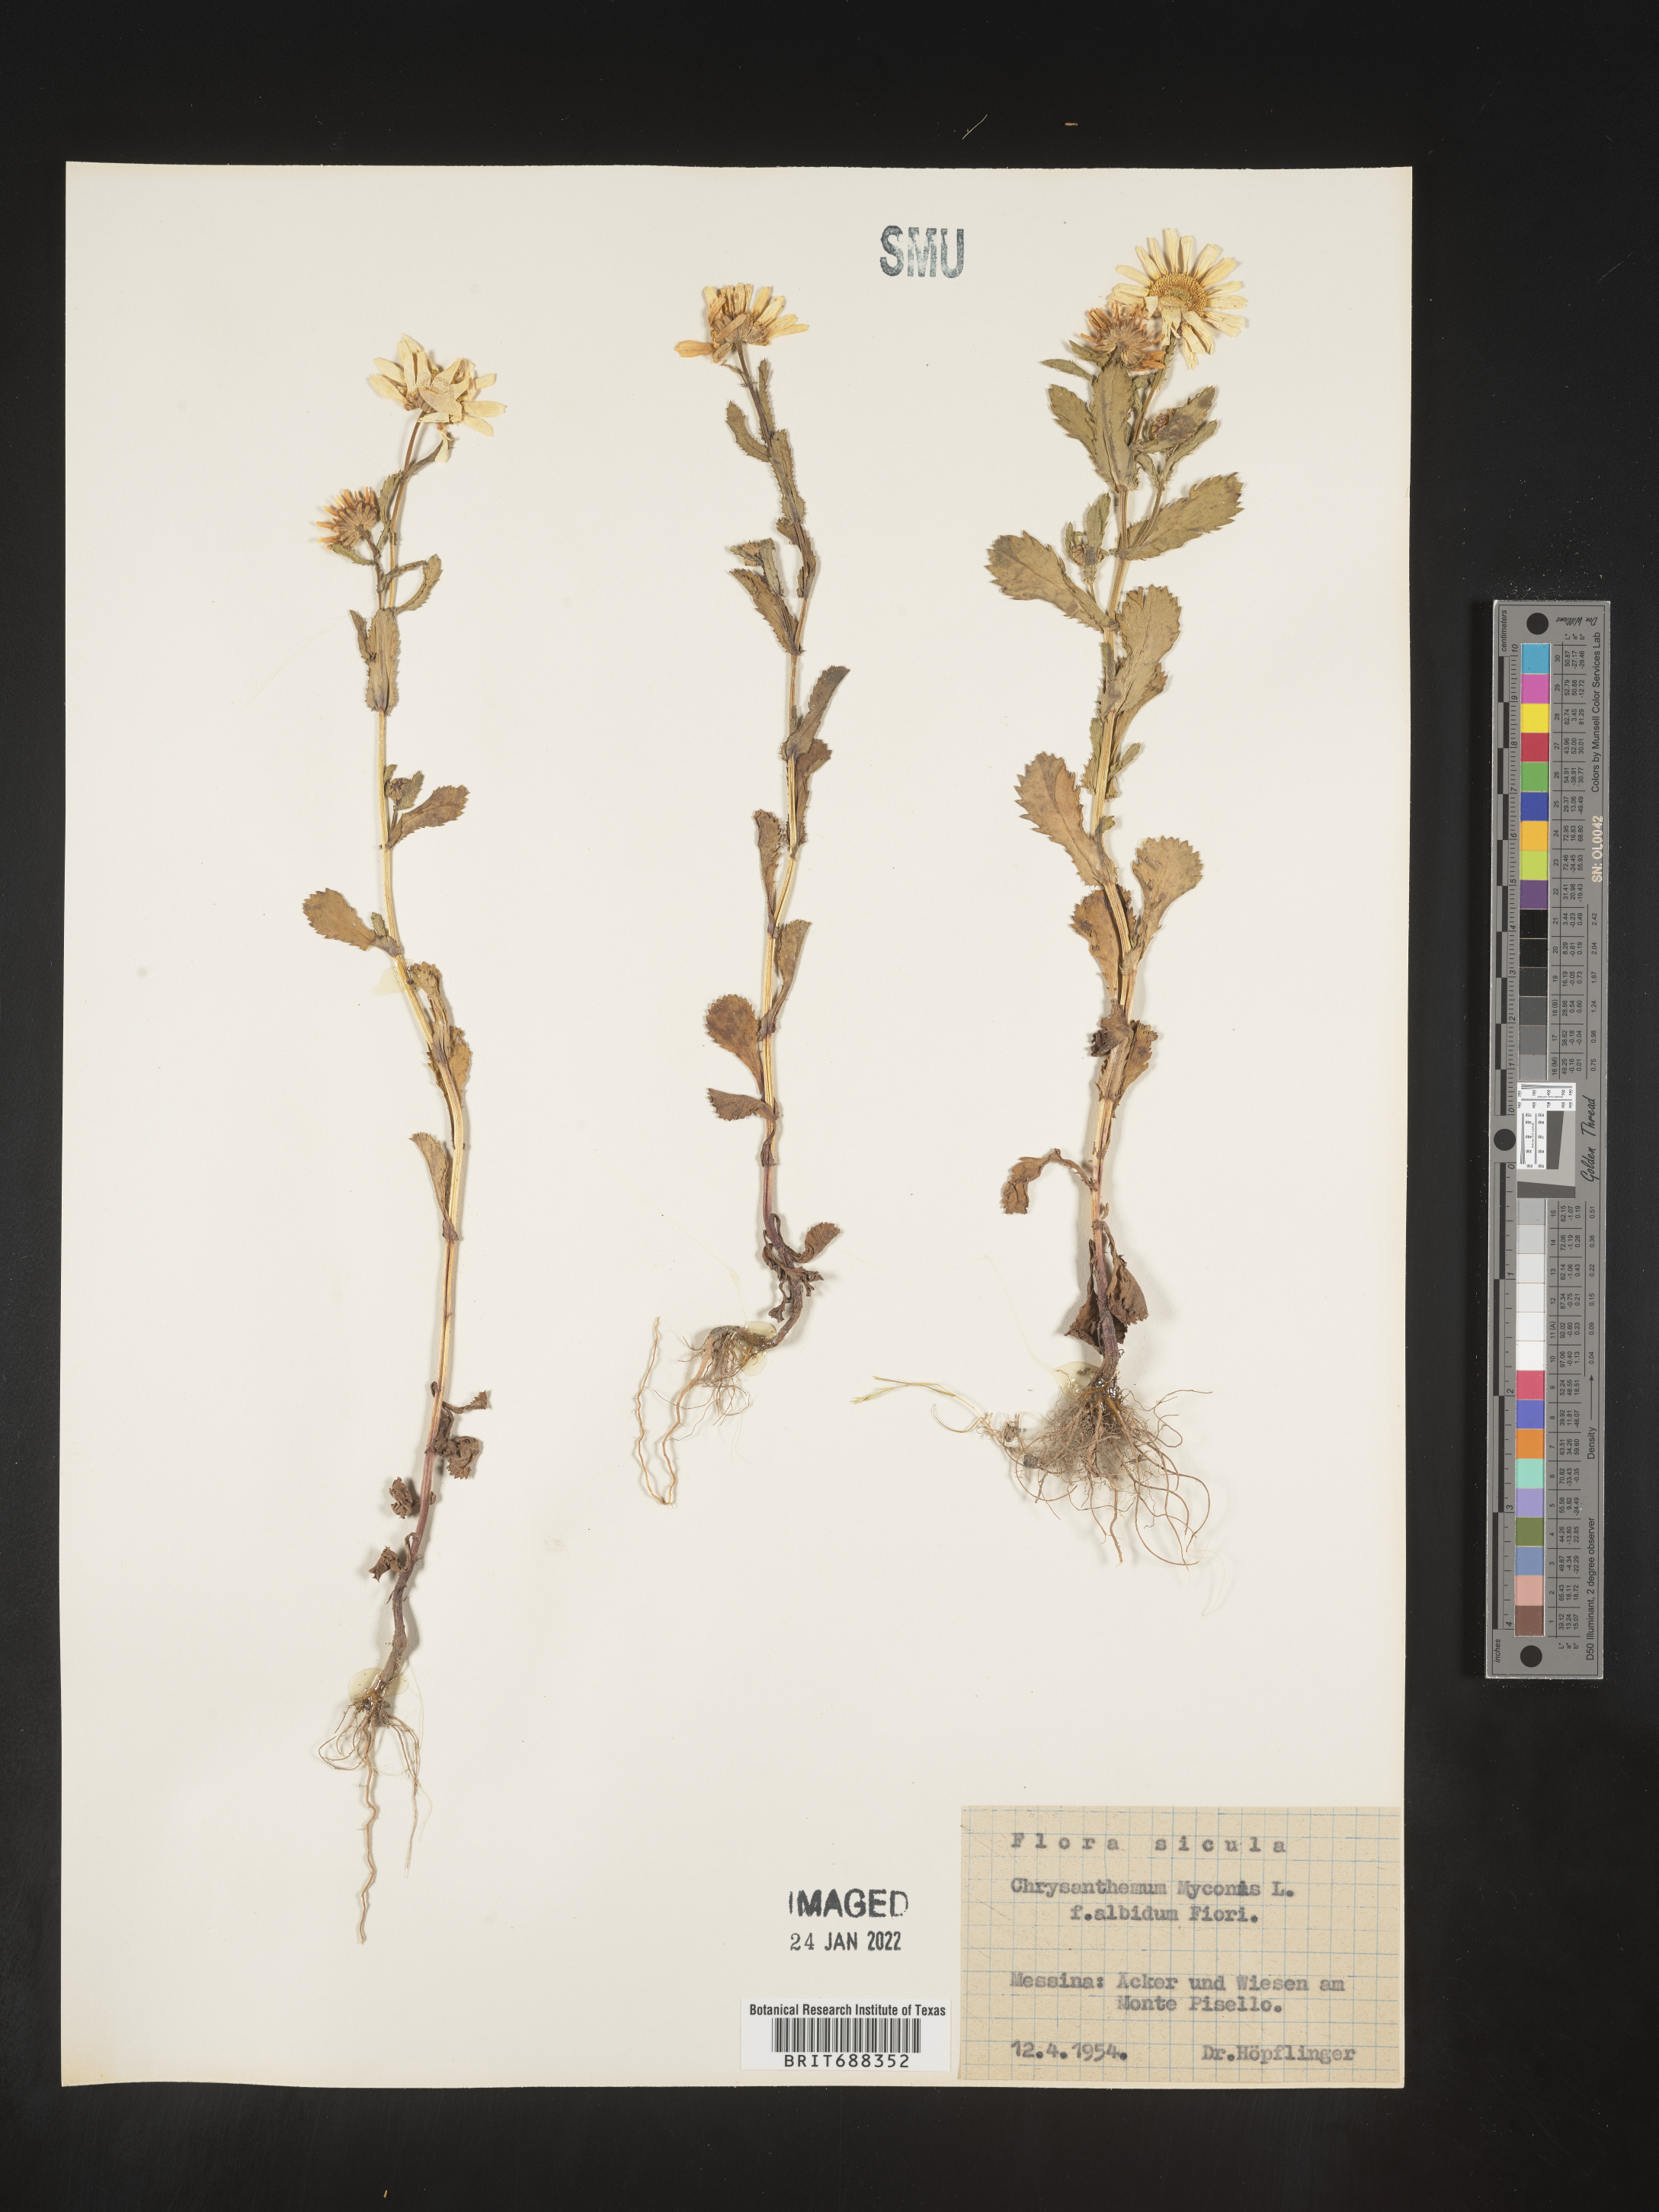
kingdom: Plantae
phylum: Tracheophyta
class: Magnoliopsida
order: Asterales
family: Asteraceae
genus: Chrysanthemum
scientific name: Chrysanthemum
